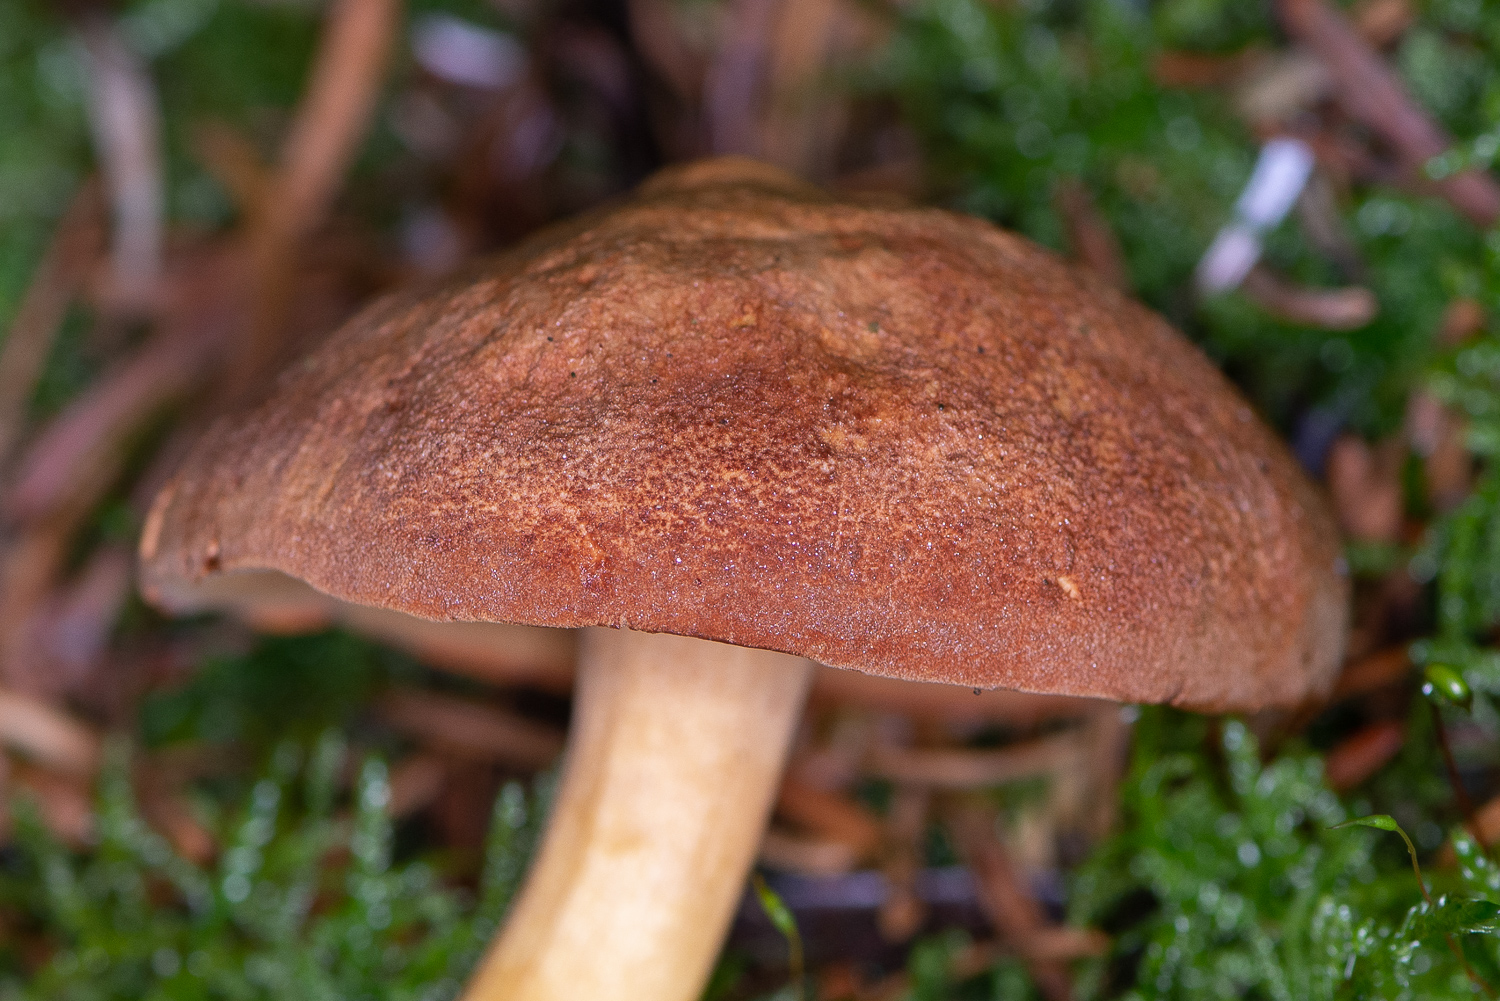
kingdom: Fungi
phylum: Basidiomycota
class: Agaricomycetes
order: Boletales
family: Boletaceae
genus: Chalciporus
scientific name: Chalciporus piperatus
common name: peberrørhat
